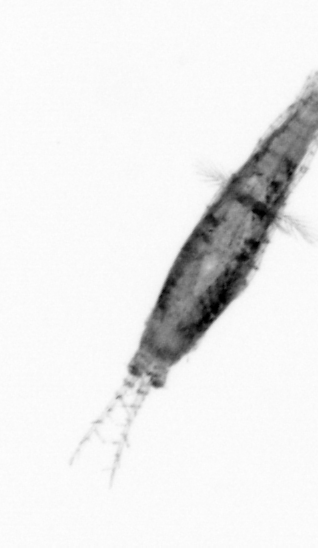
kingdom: Animalia
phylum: Arthropoda
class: Copepoda
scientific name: Copepoda
